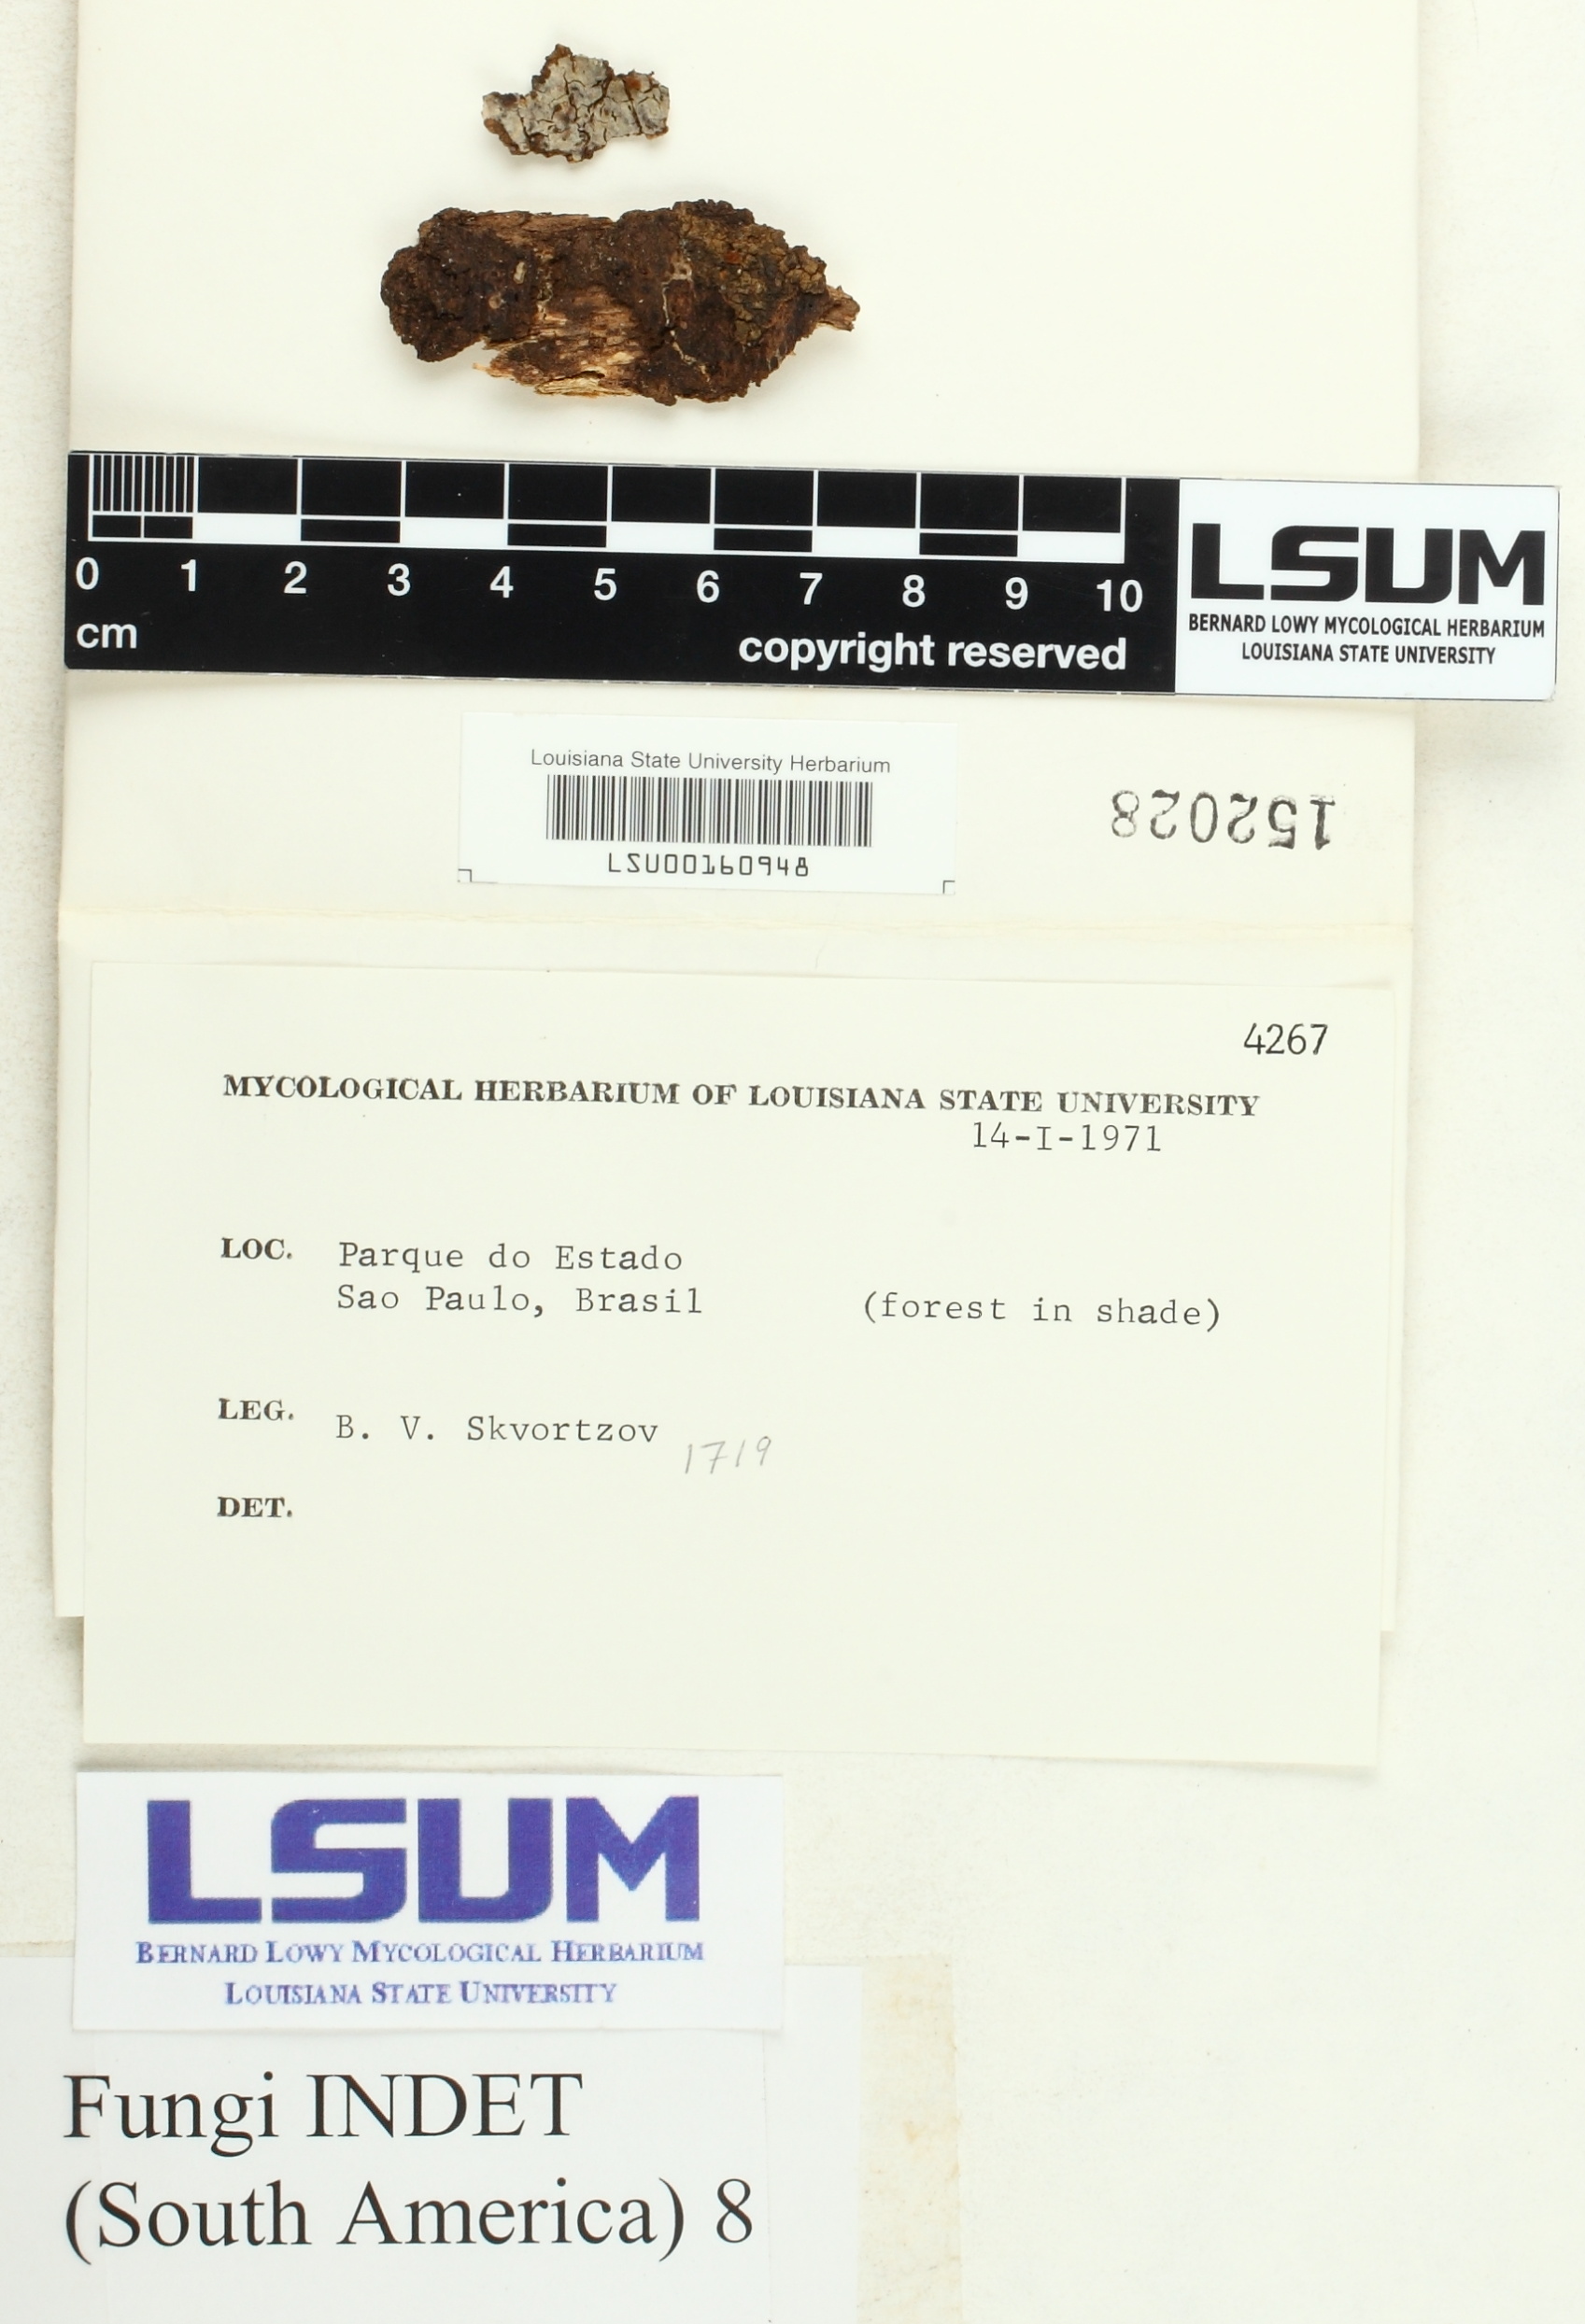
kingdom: Fungi
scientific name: Fungi
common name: Fungi
